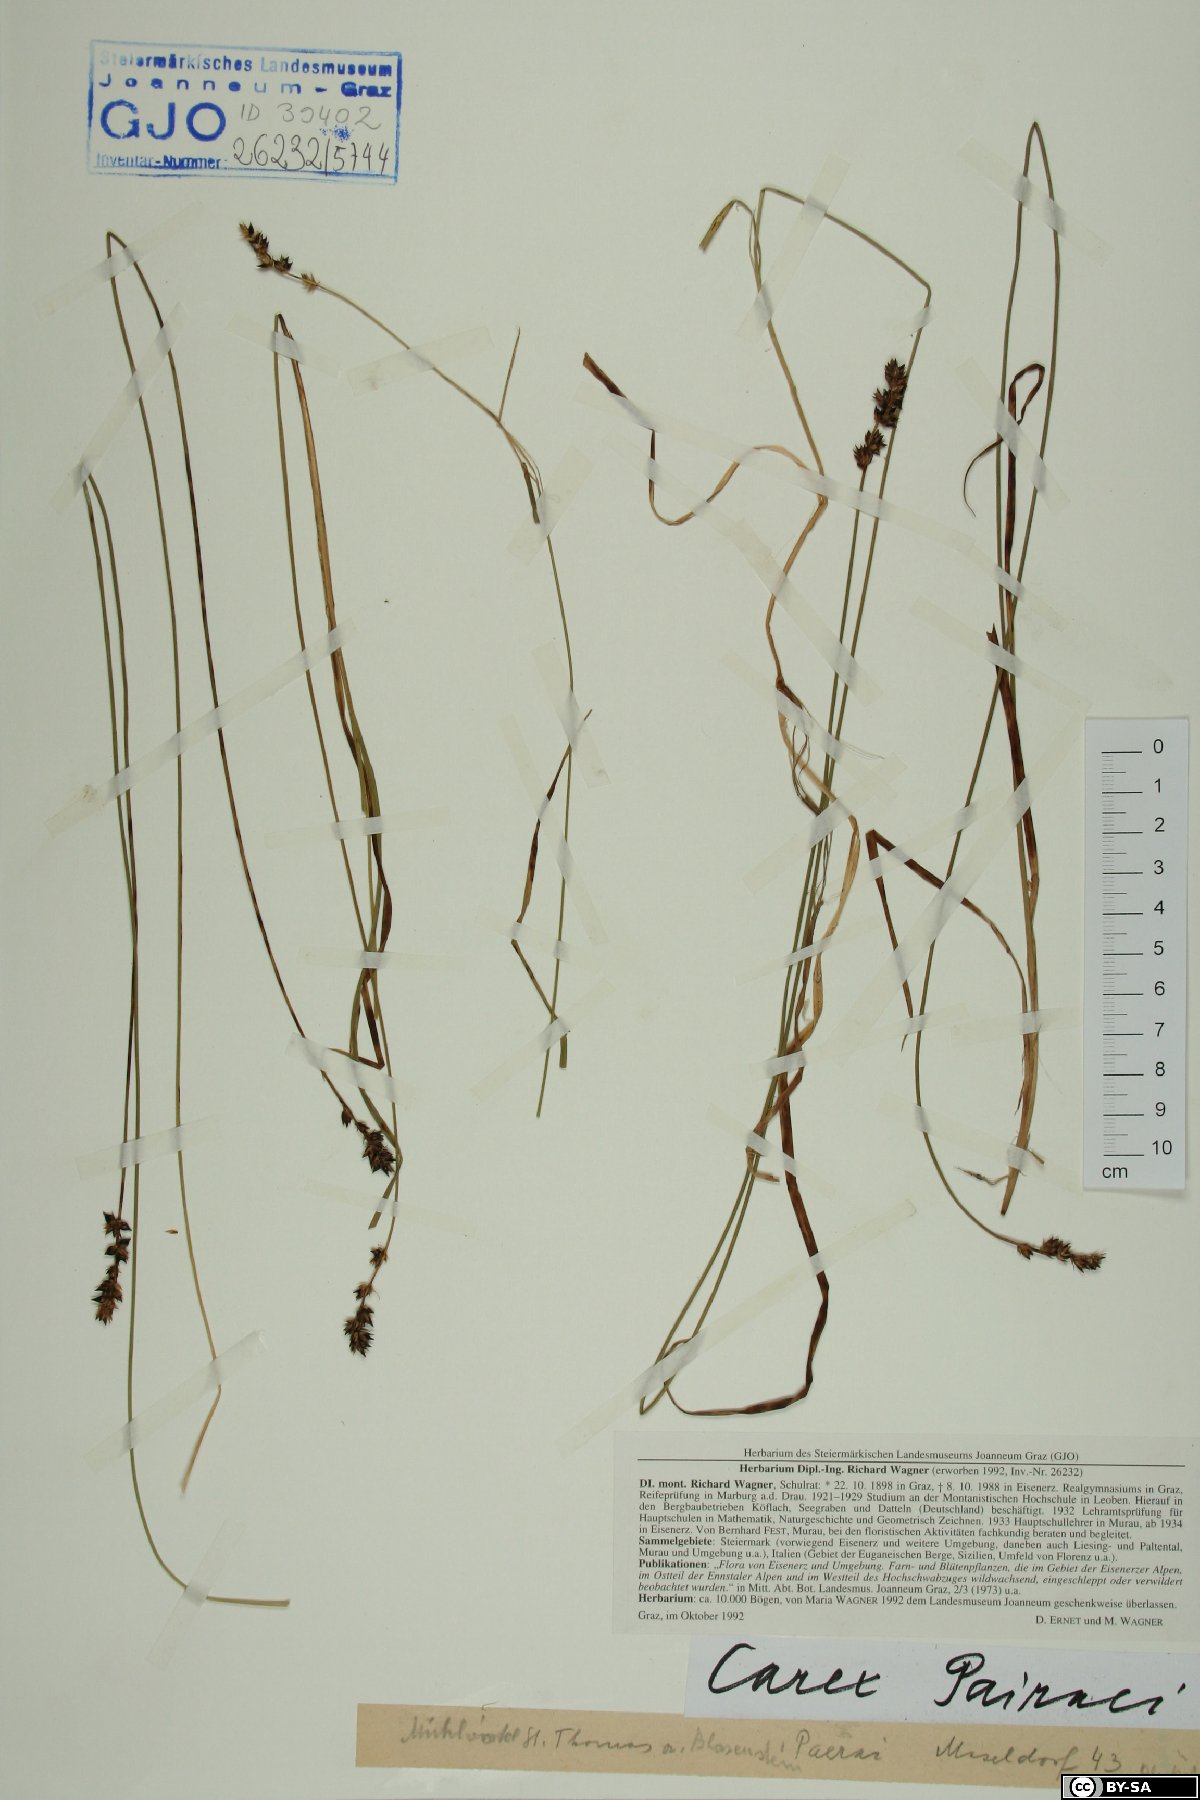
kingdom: Plantae
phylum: Tracheophyta
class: Liliopsida
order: Poales
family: Cyperaceae
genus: Carex
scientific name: Carex pairae
